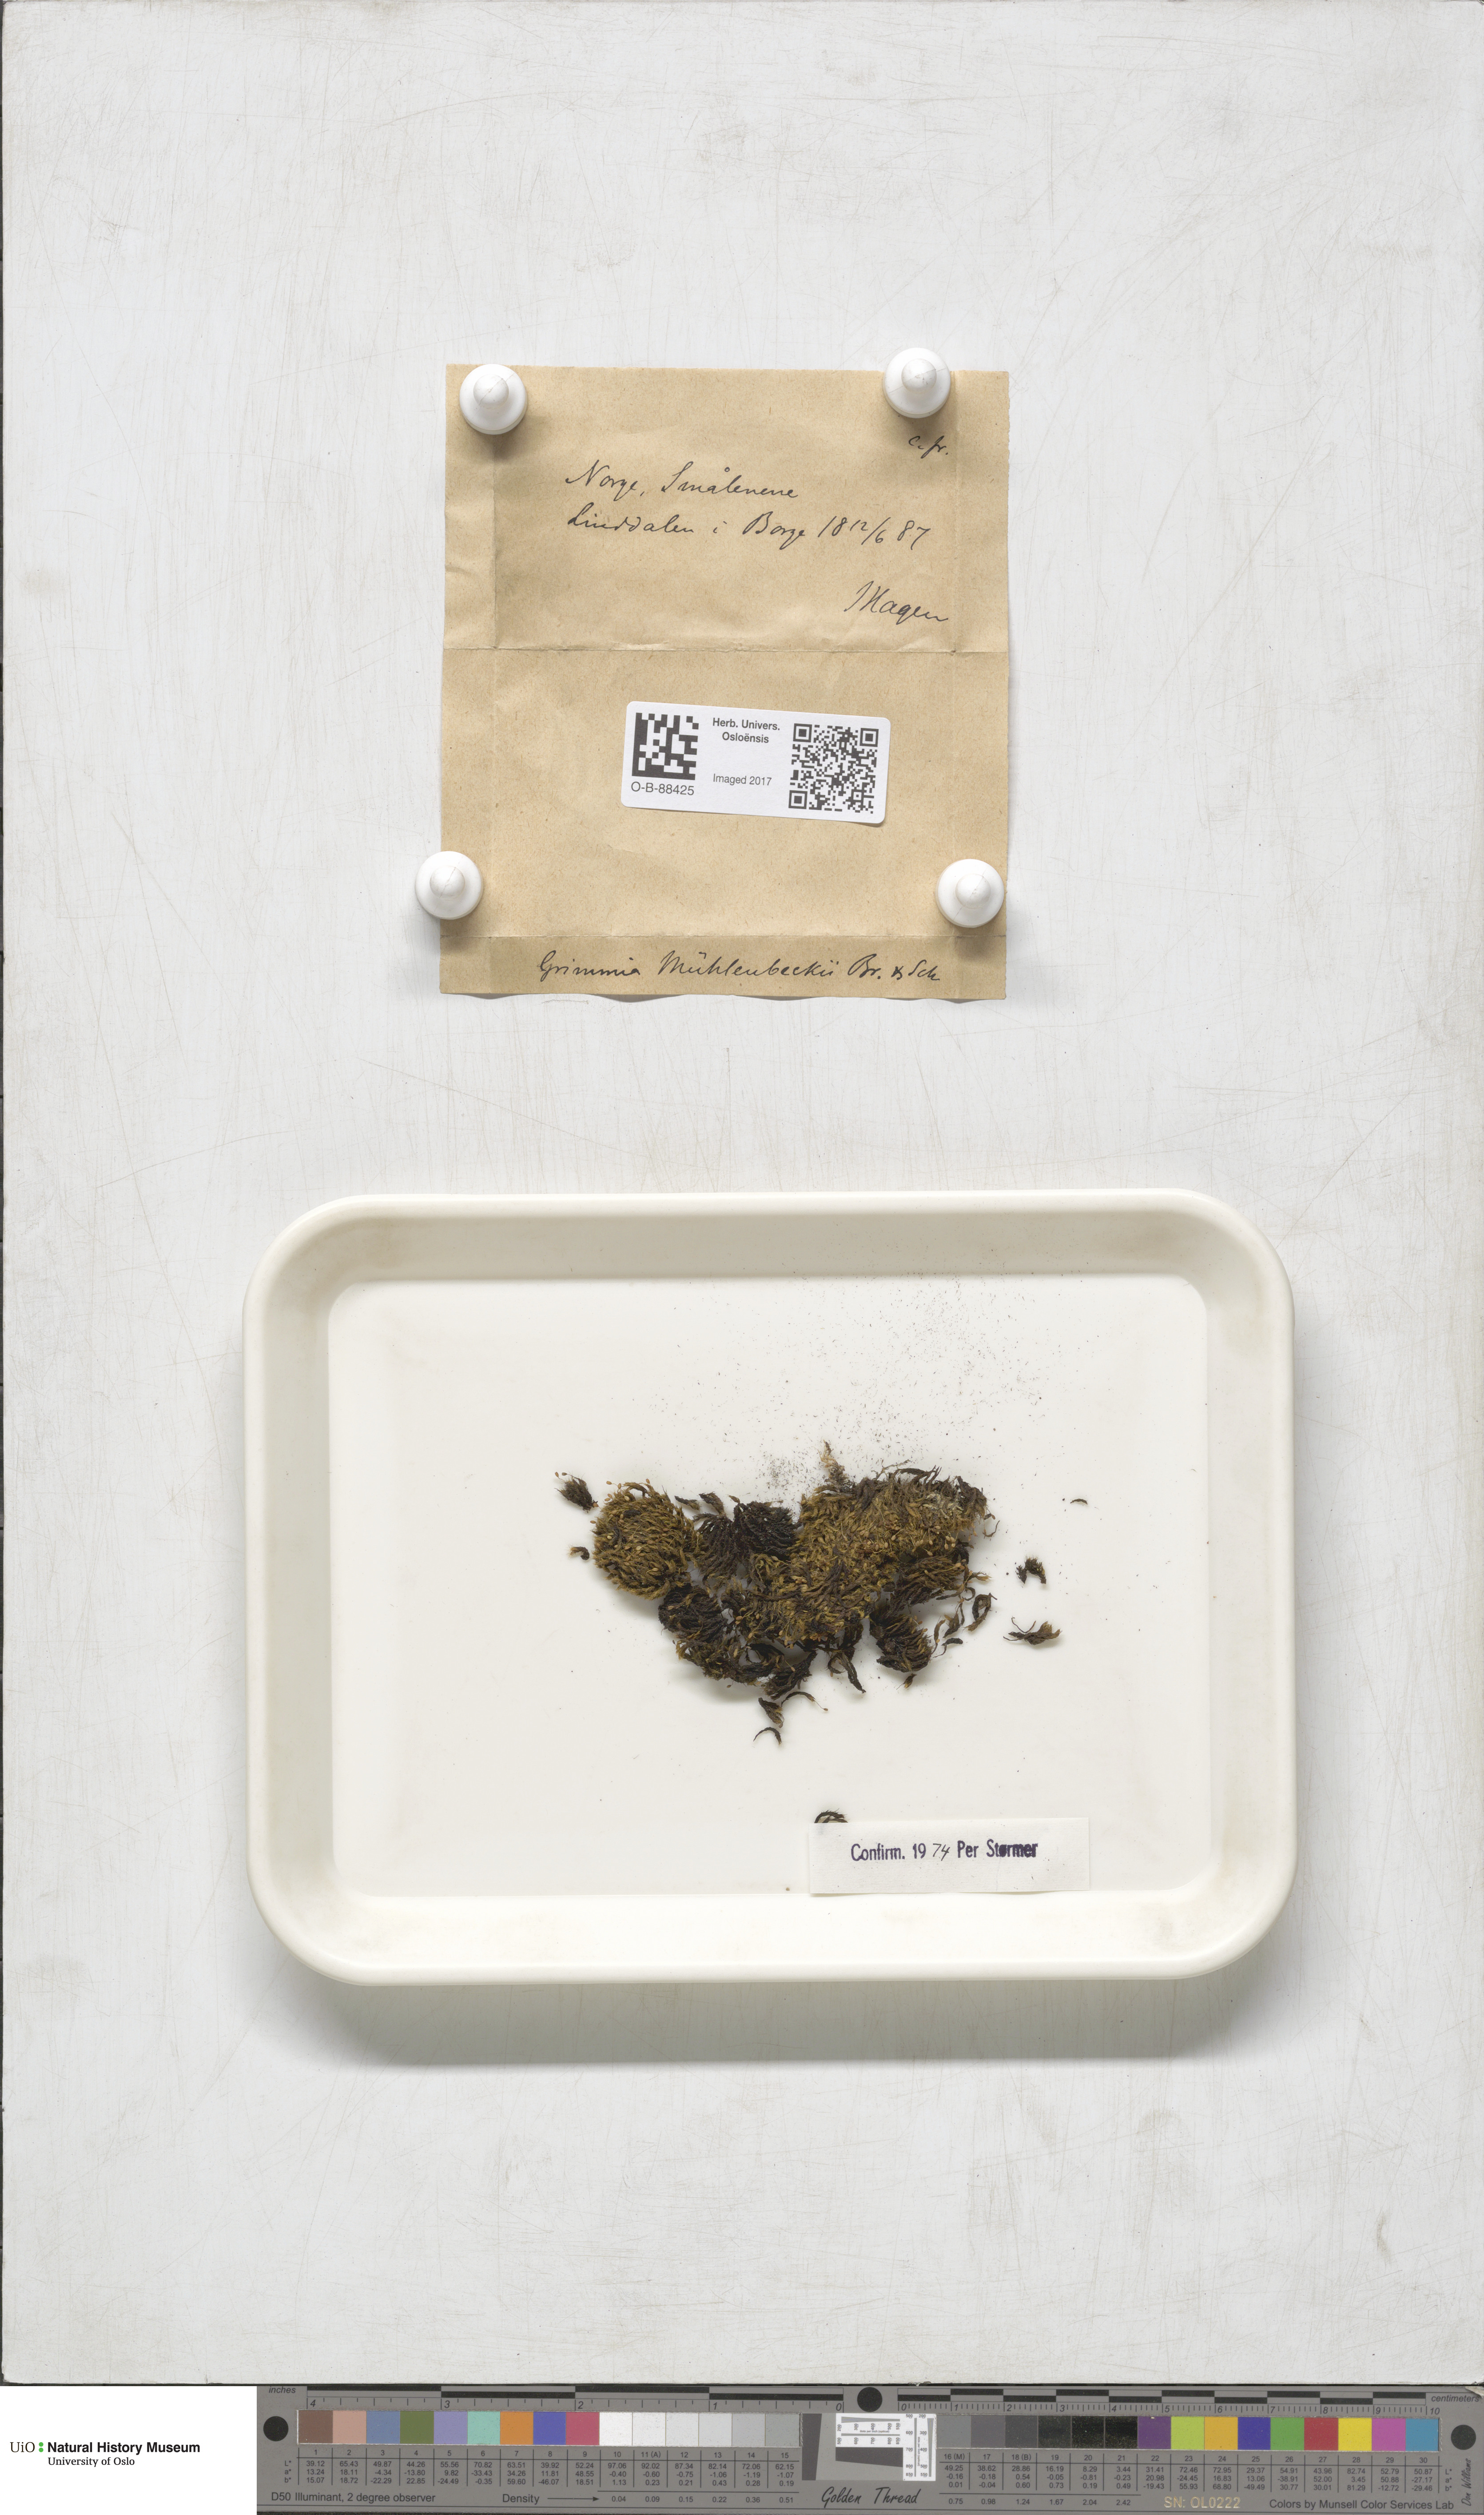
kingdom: Plantae
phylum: Bryophyta
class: Bryopsida
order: Grimmiales
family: Grimmiaceae
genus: Grimmia
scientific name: Grimmia trichophylla
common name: Hair-pointed grimmia
